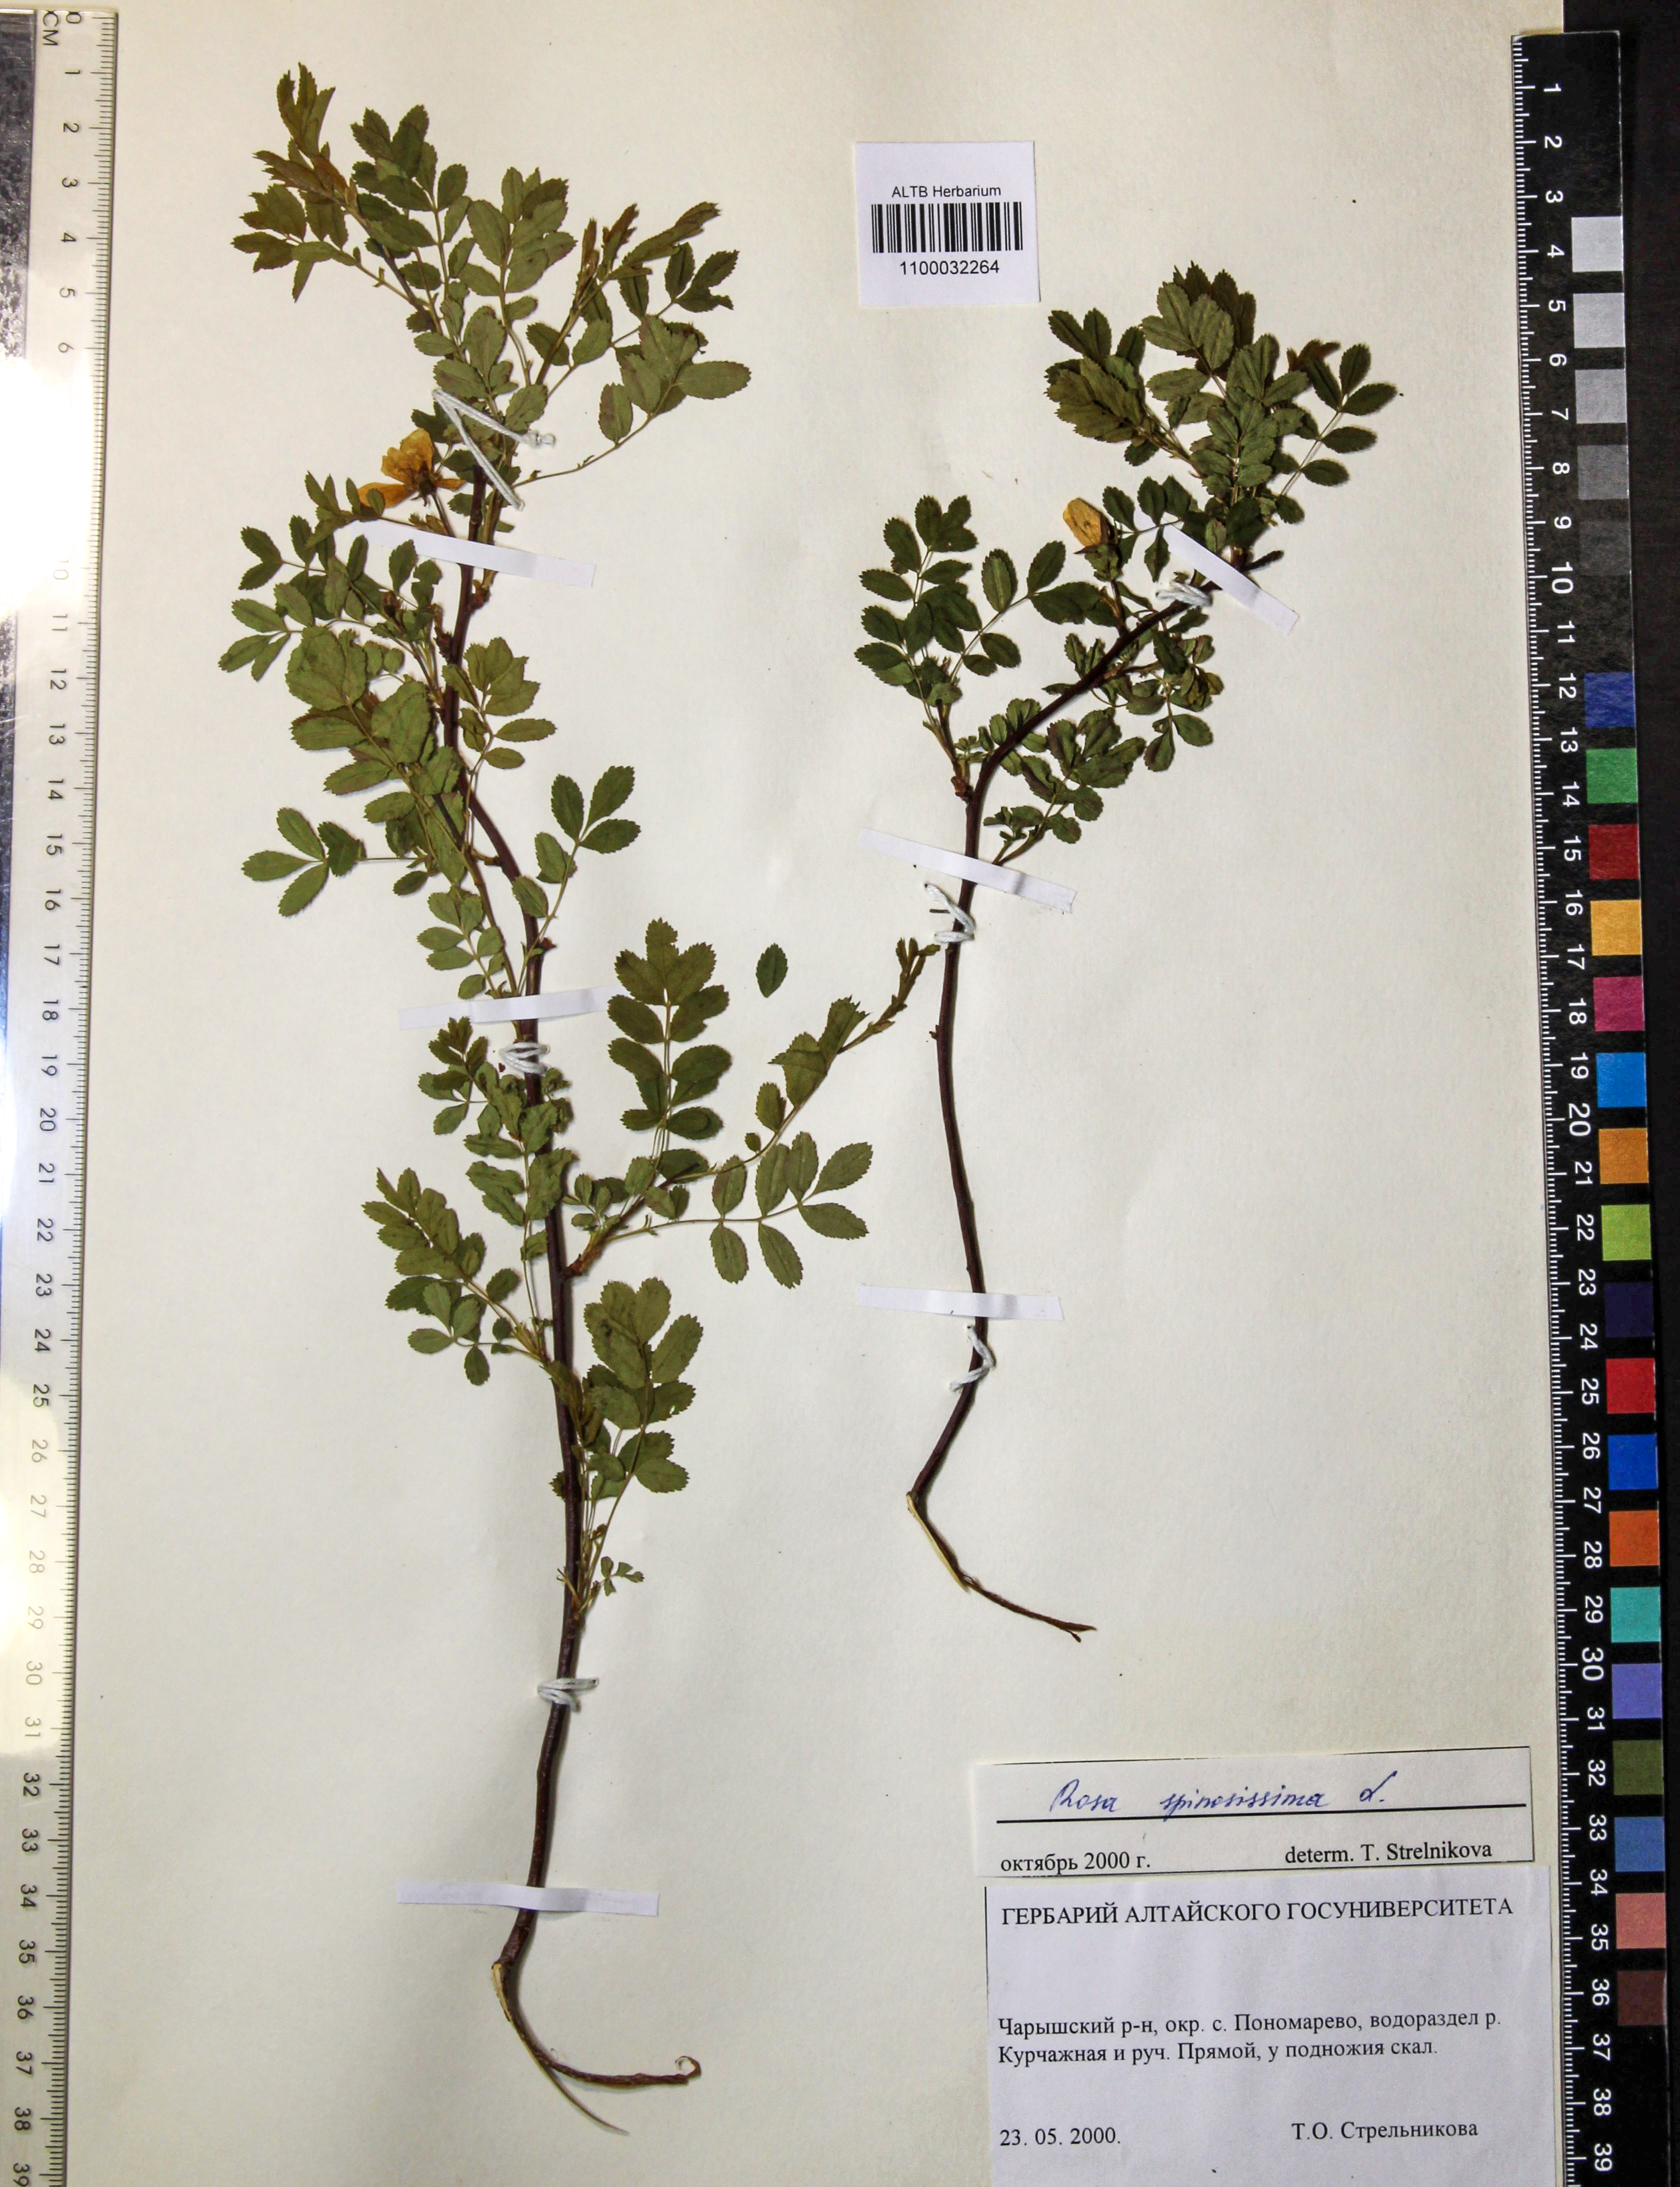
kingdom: Plantae
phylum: Tracheophyta
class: Magnoliopsida
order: Rosales
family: Rosaceae
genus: Rosa
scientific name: Rosa spinosissima
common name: Burnet rose
